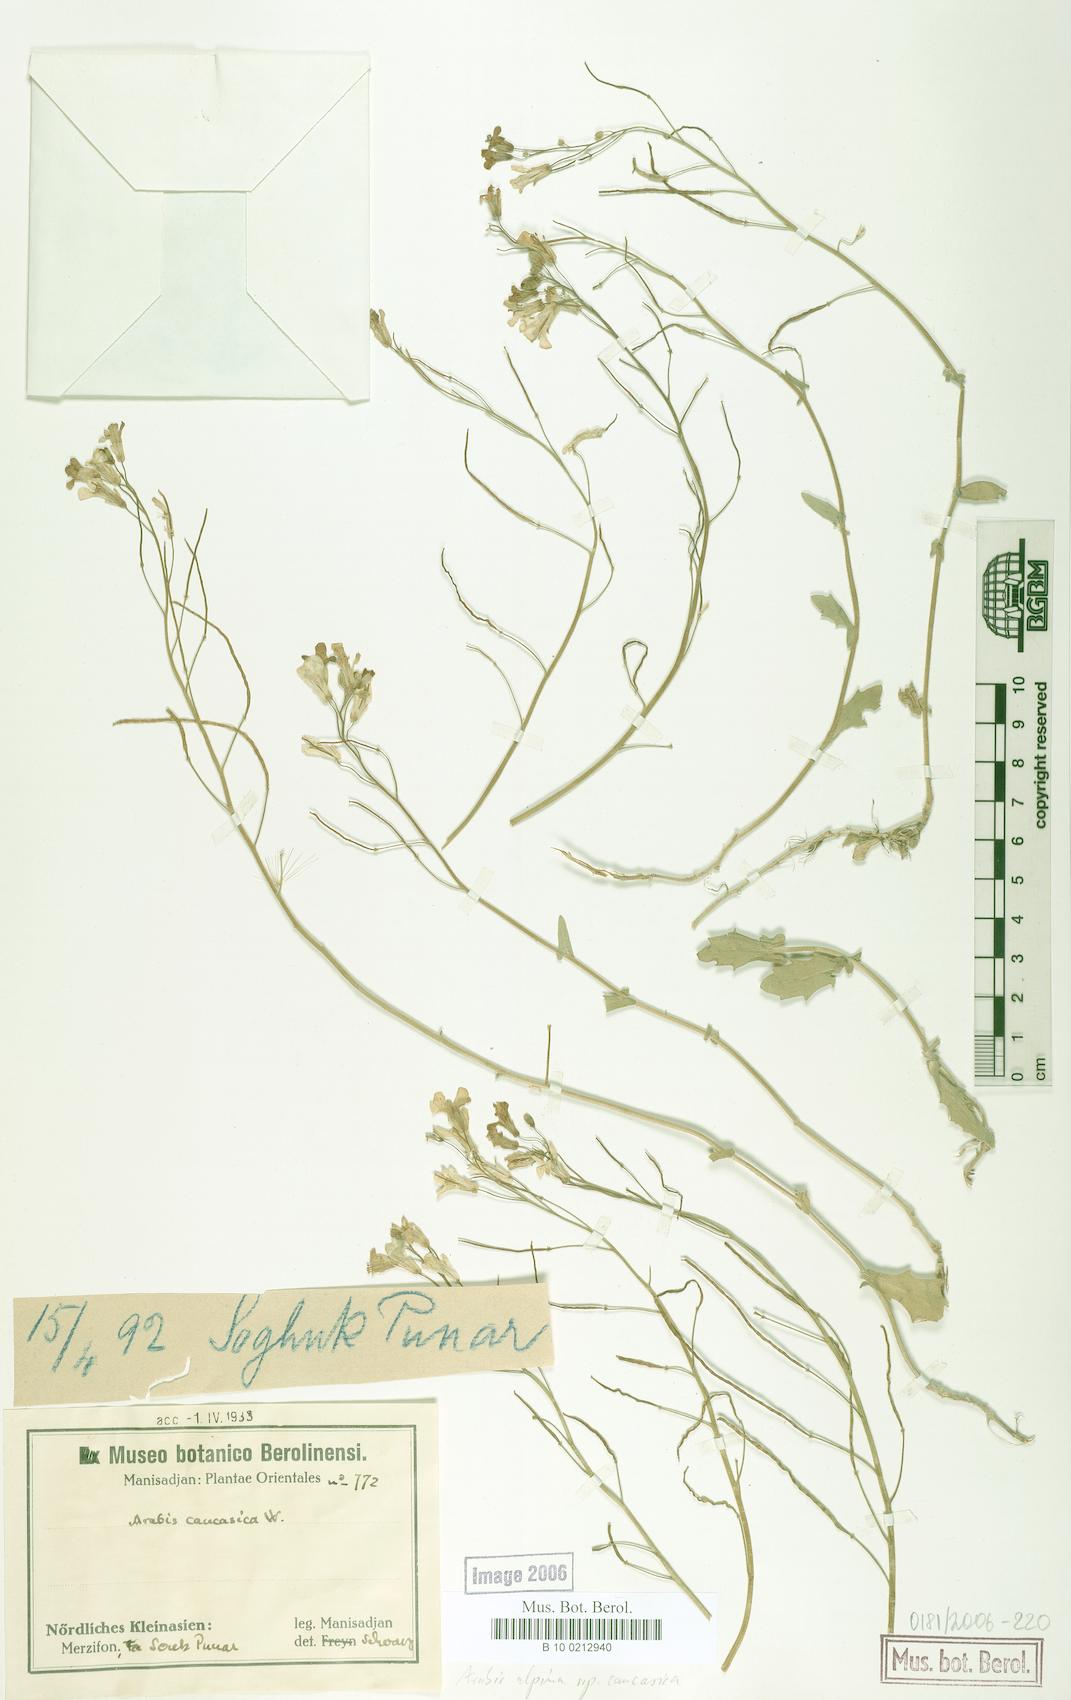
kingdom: Plantae
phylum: Tracheophyta
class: Magnoliopsida
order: Brassicales
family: Brassicaceae
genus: Arabis
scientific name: Arabis caucasica
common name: Gray rockcress
